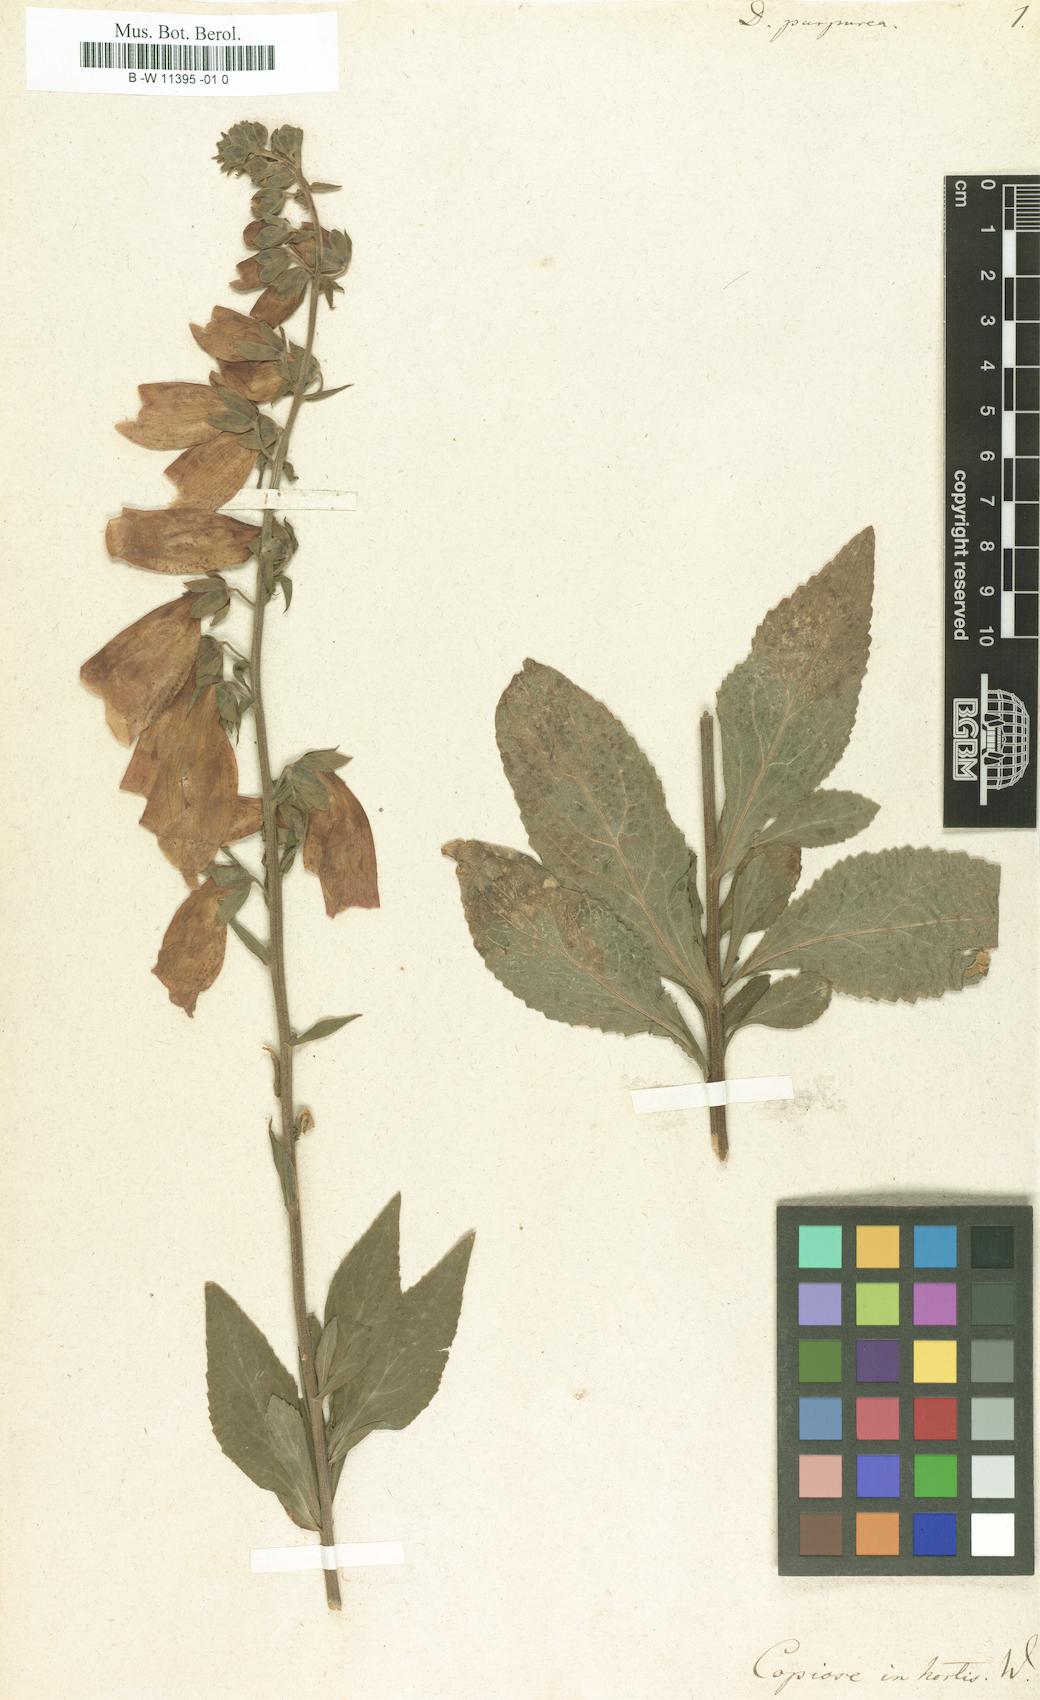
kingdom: Plantae
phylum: Tracheophyta
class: Magnoliopsida
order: Lamiales
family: Plantaginaceae
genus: Digitalis
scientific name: Digitalis purpurea
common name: Foxglove
